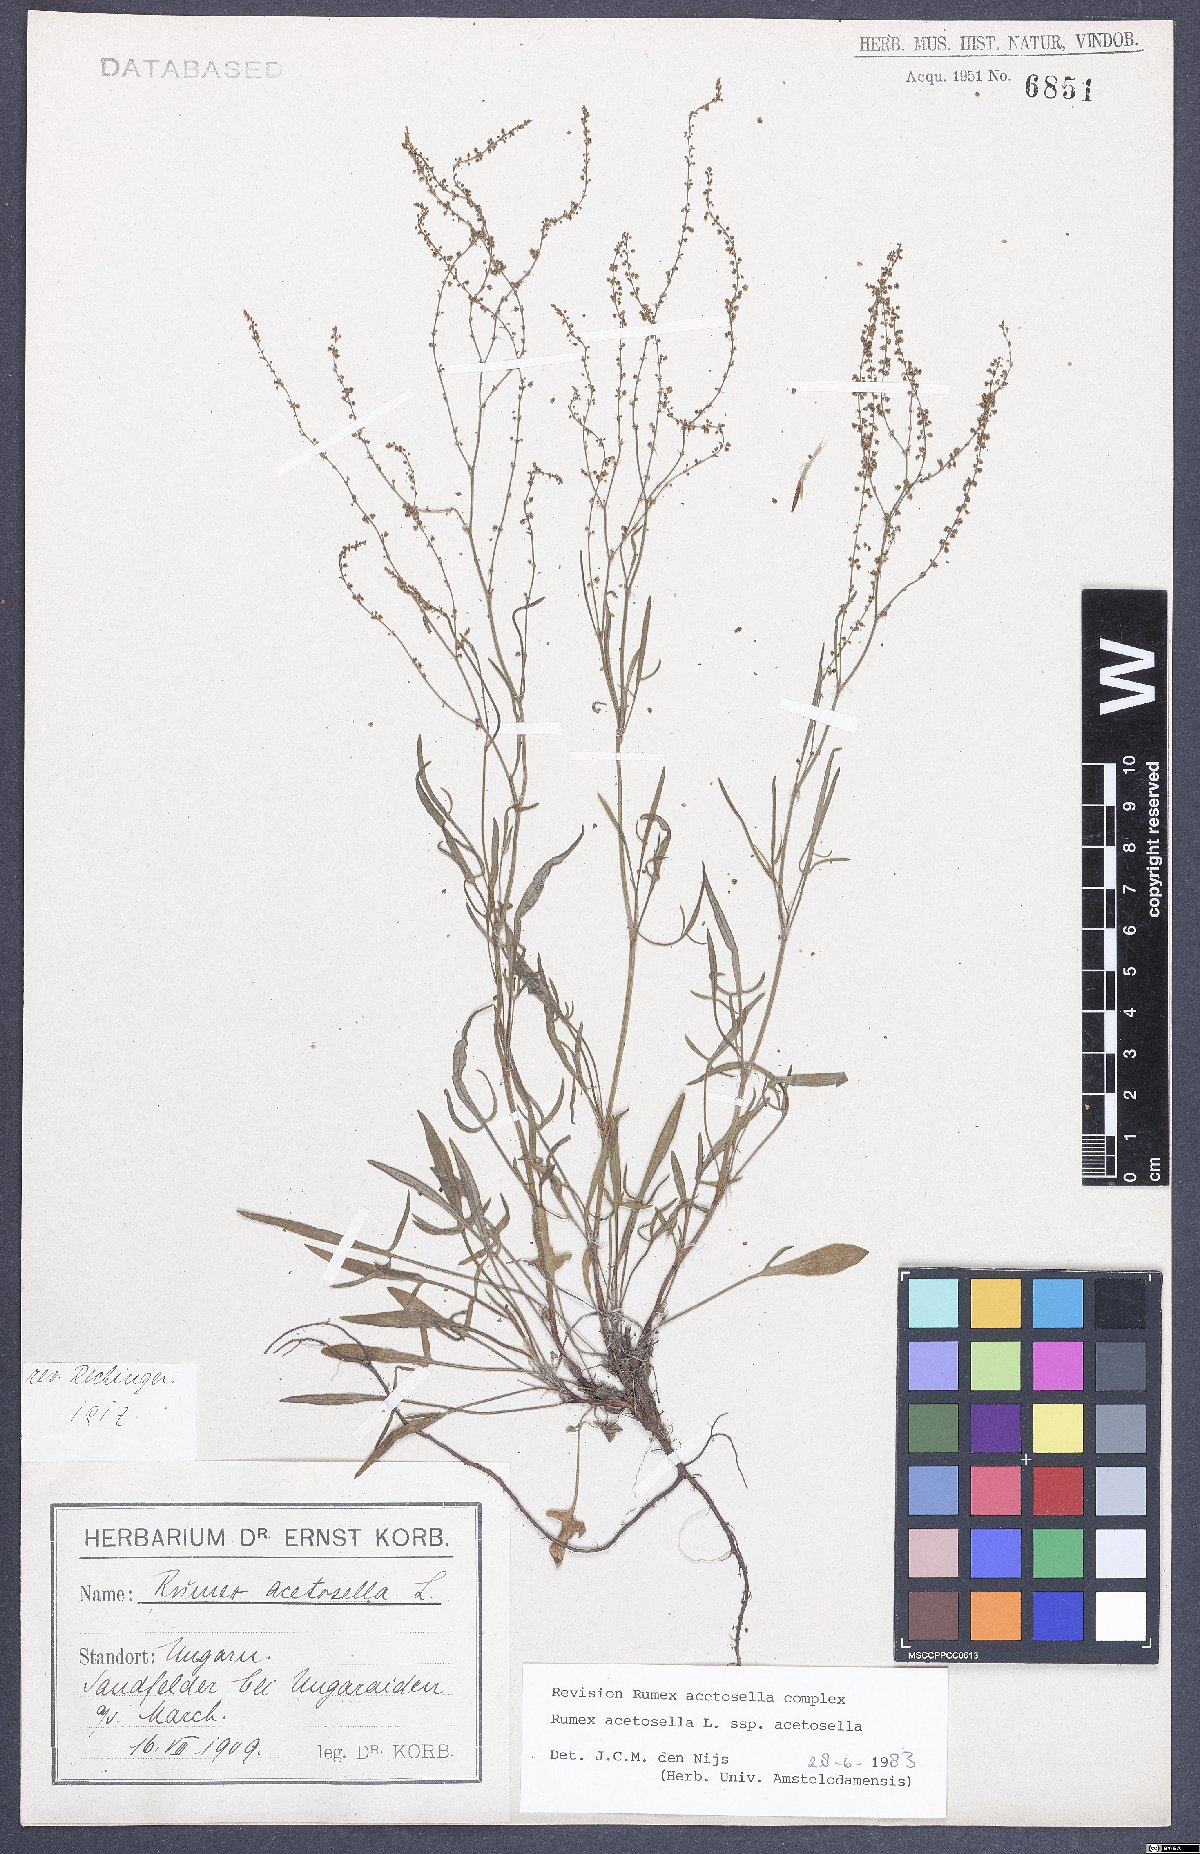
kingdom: Plantae
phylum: Tracheophyta
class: Magnoliopsida
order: Caryophyllales
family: Polygonaceae
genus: Rumex
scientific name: Rumex acetosella
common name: Common sheep sorrel
